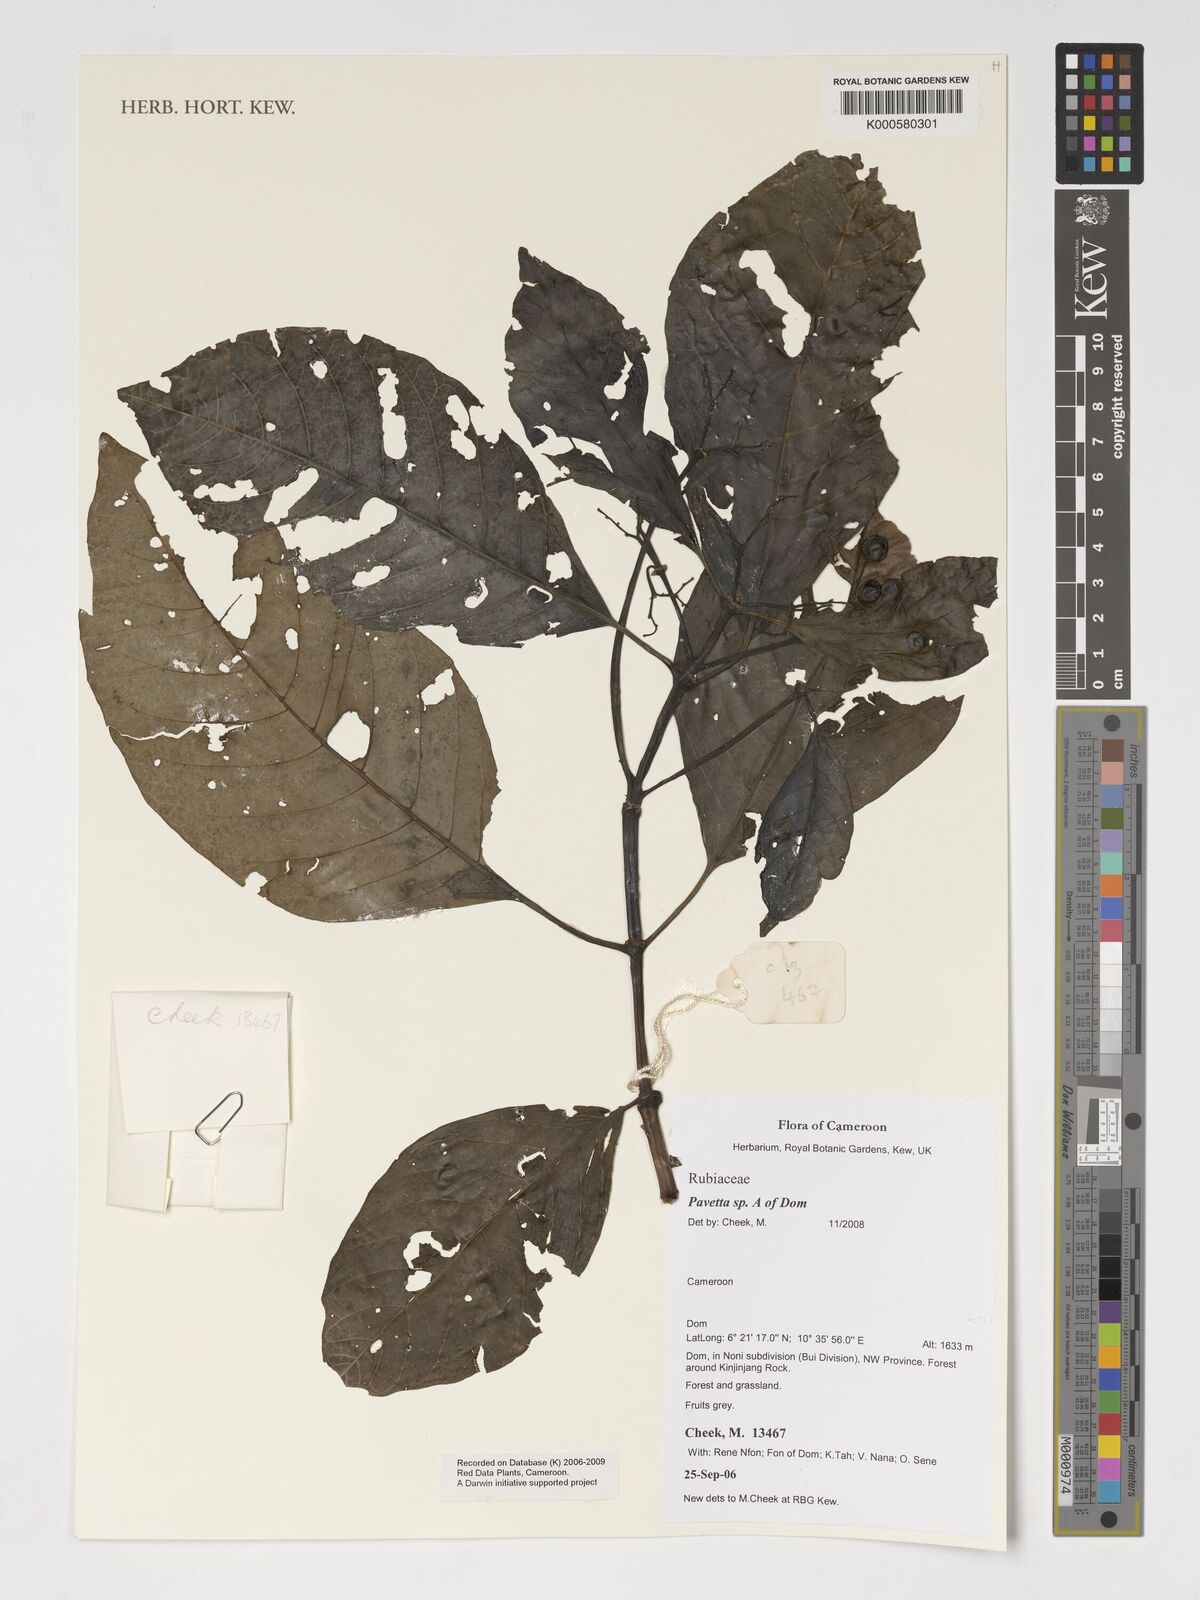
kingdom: Plantae
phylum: Tracheophyta
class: Magnoliopsida
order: Gentianales
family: Rubiaceae
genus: Pavetta
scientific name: Pavetta
